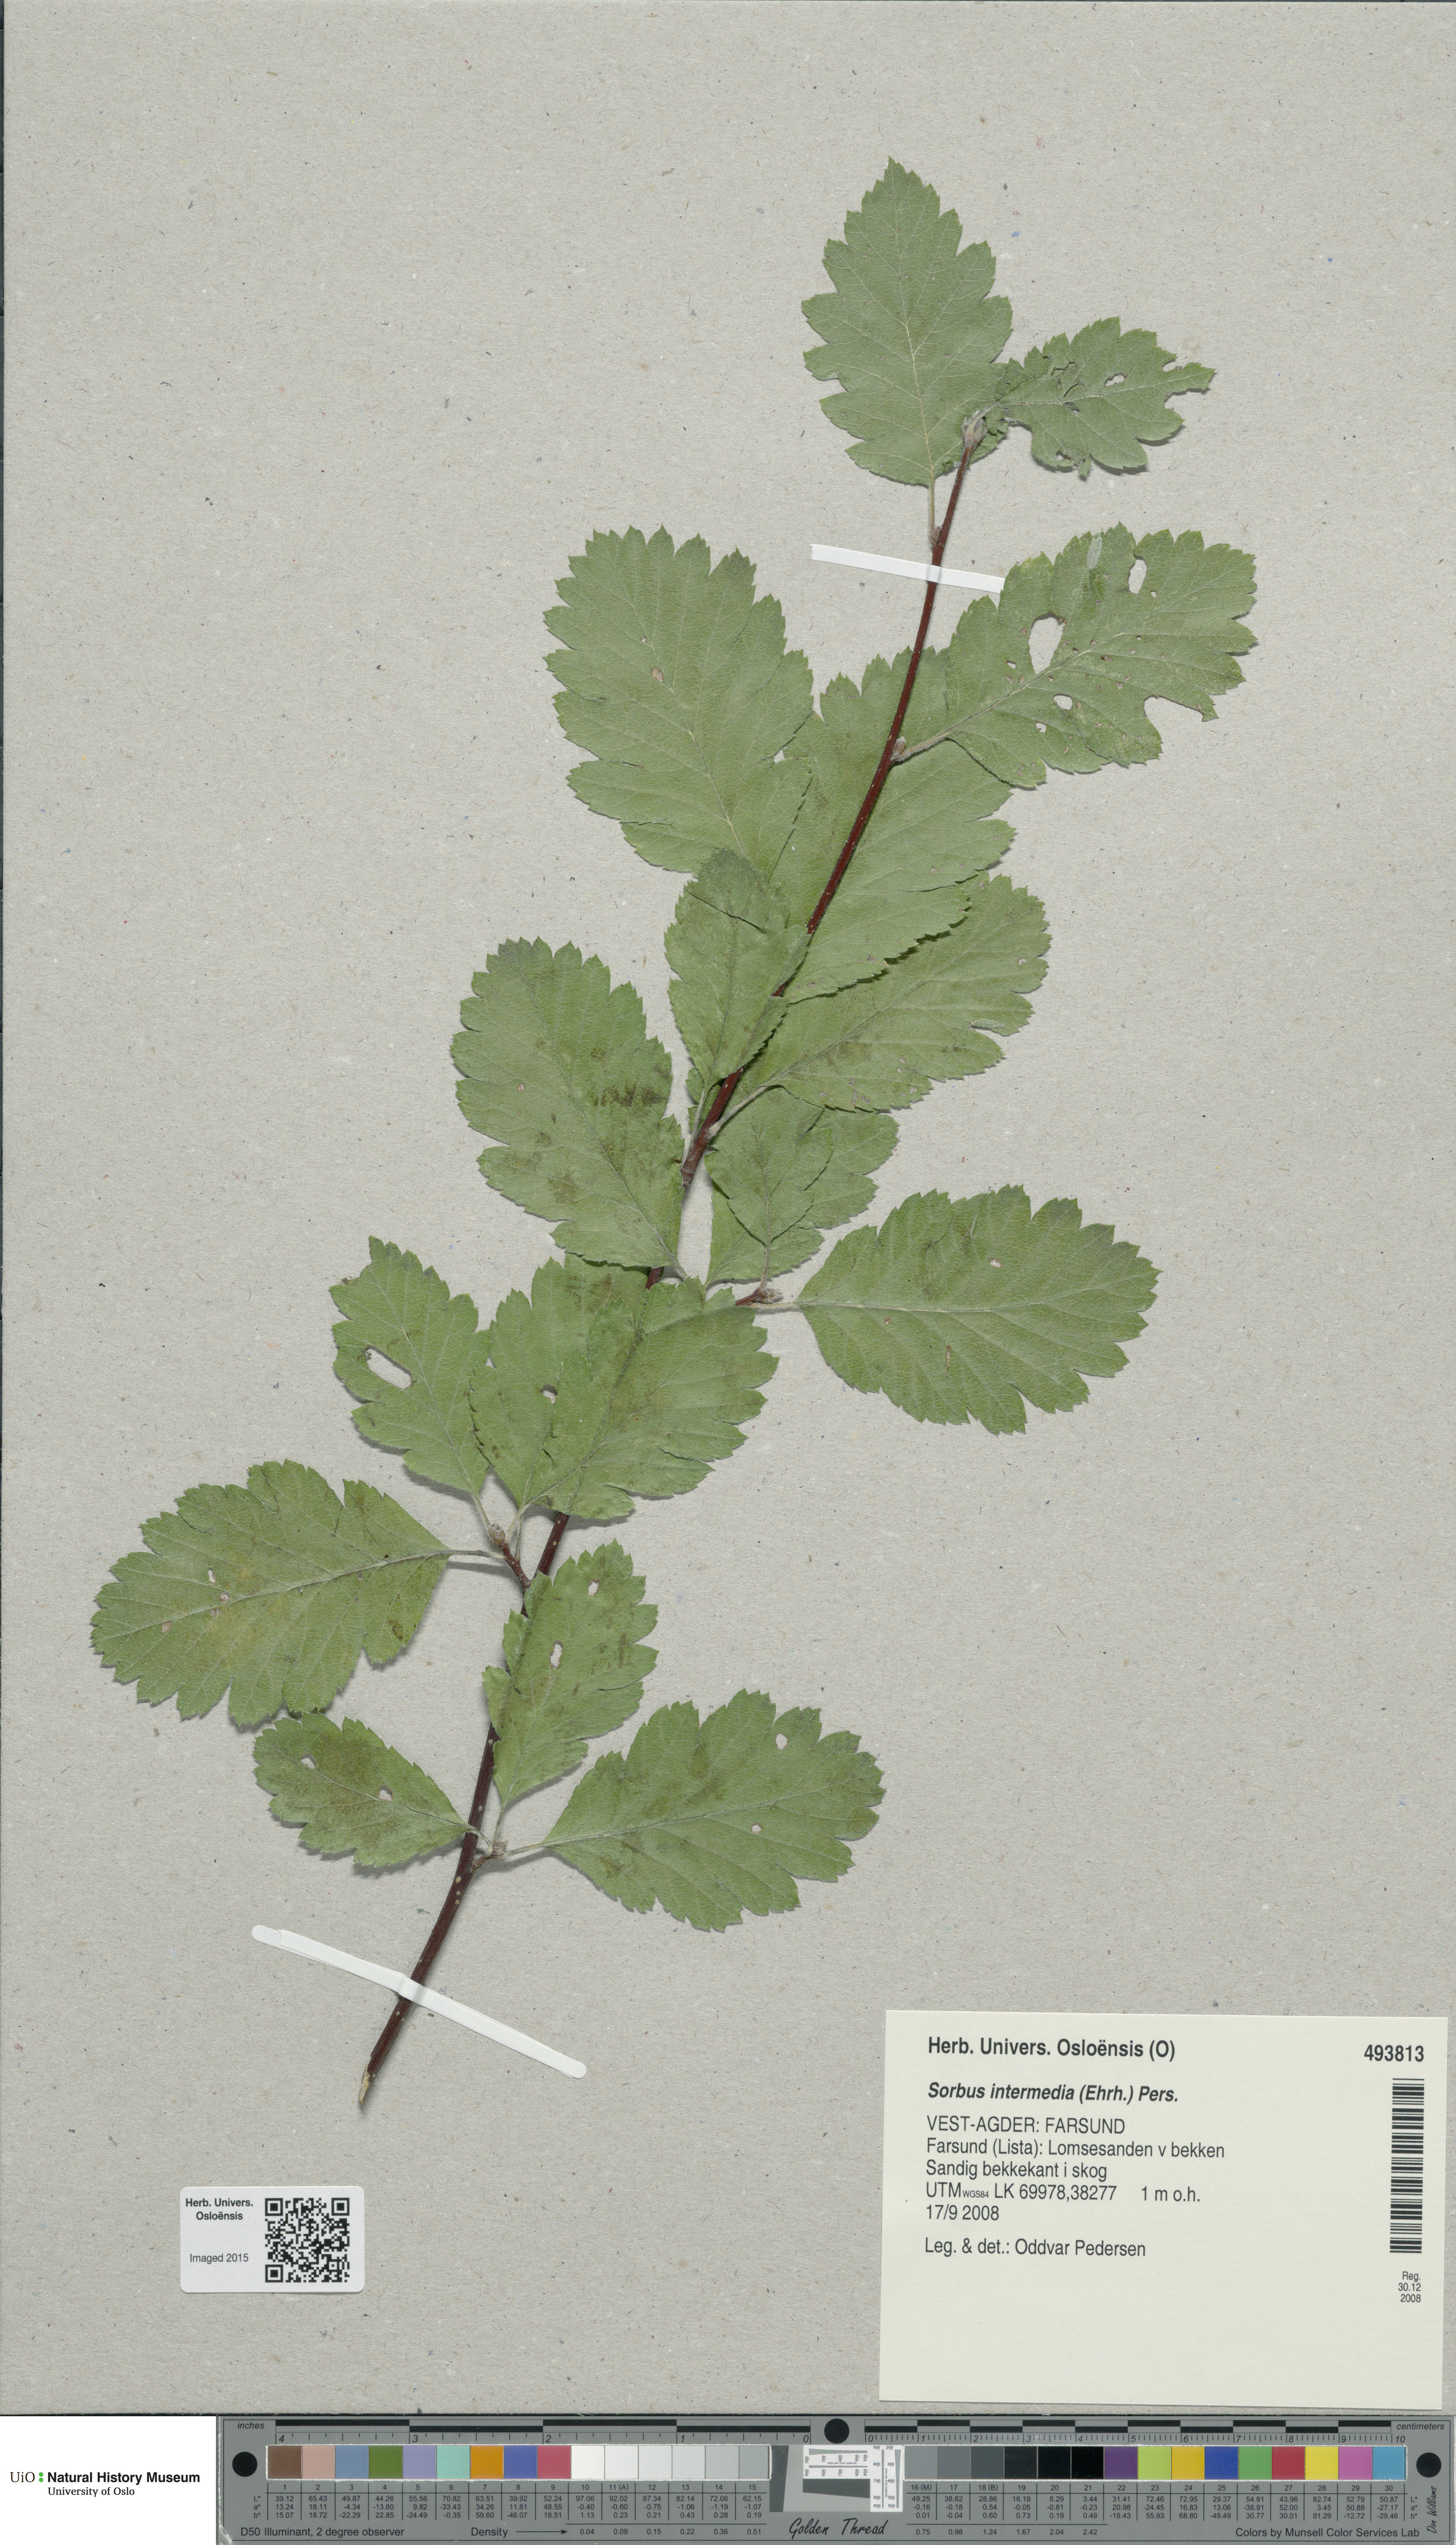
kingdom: Plantae
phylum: Tracheophyta
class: Magnoliopsida
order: Rosales
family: Rosaceae
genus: Scandosorbus
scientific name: Scandosorbus intermedia
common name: Swedish whitebeam
